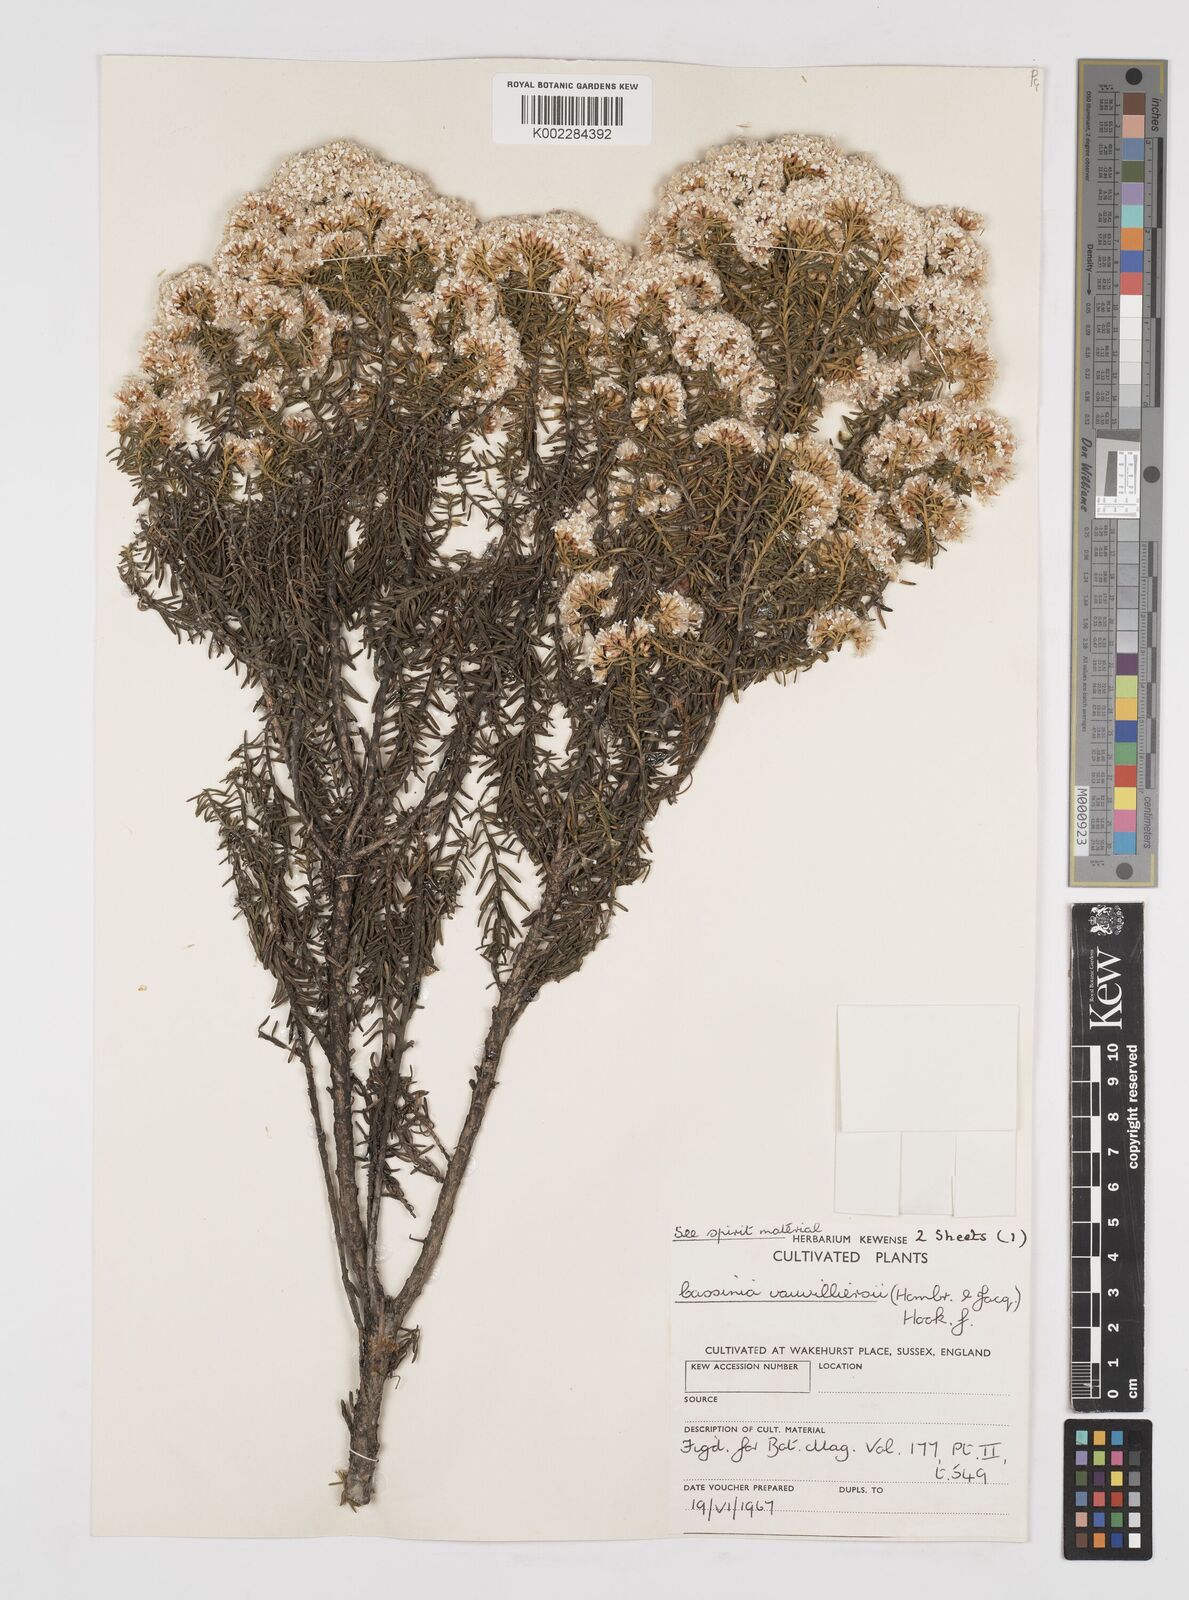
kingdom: Plantae
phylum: Tracheophyta
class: Magnoliopsida
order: Asterales
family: Asteraceae
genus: Ozothamnus
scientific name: Ozothamnus leptophyllus
